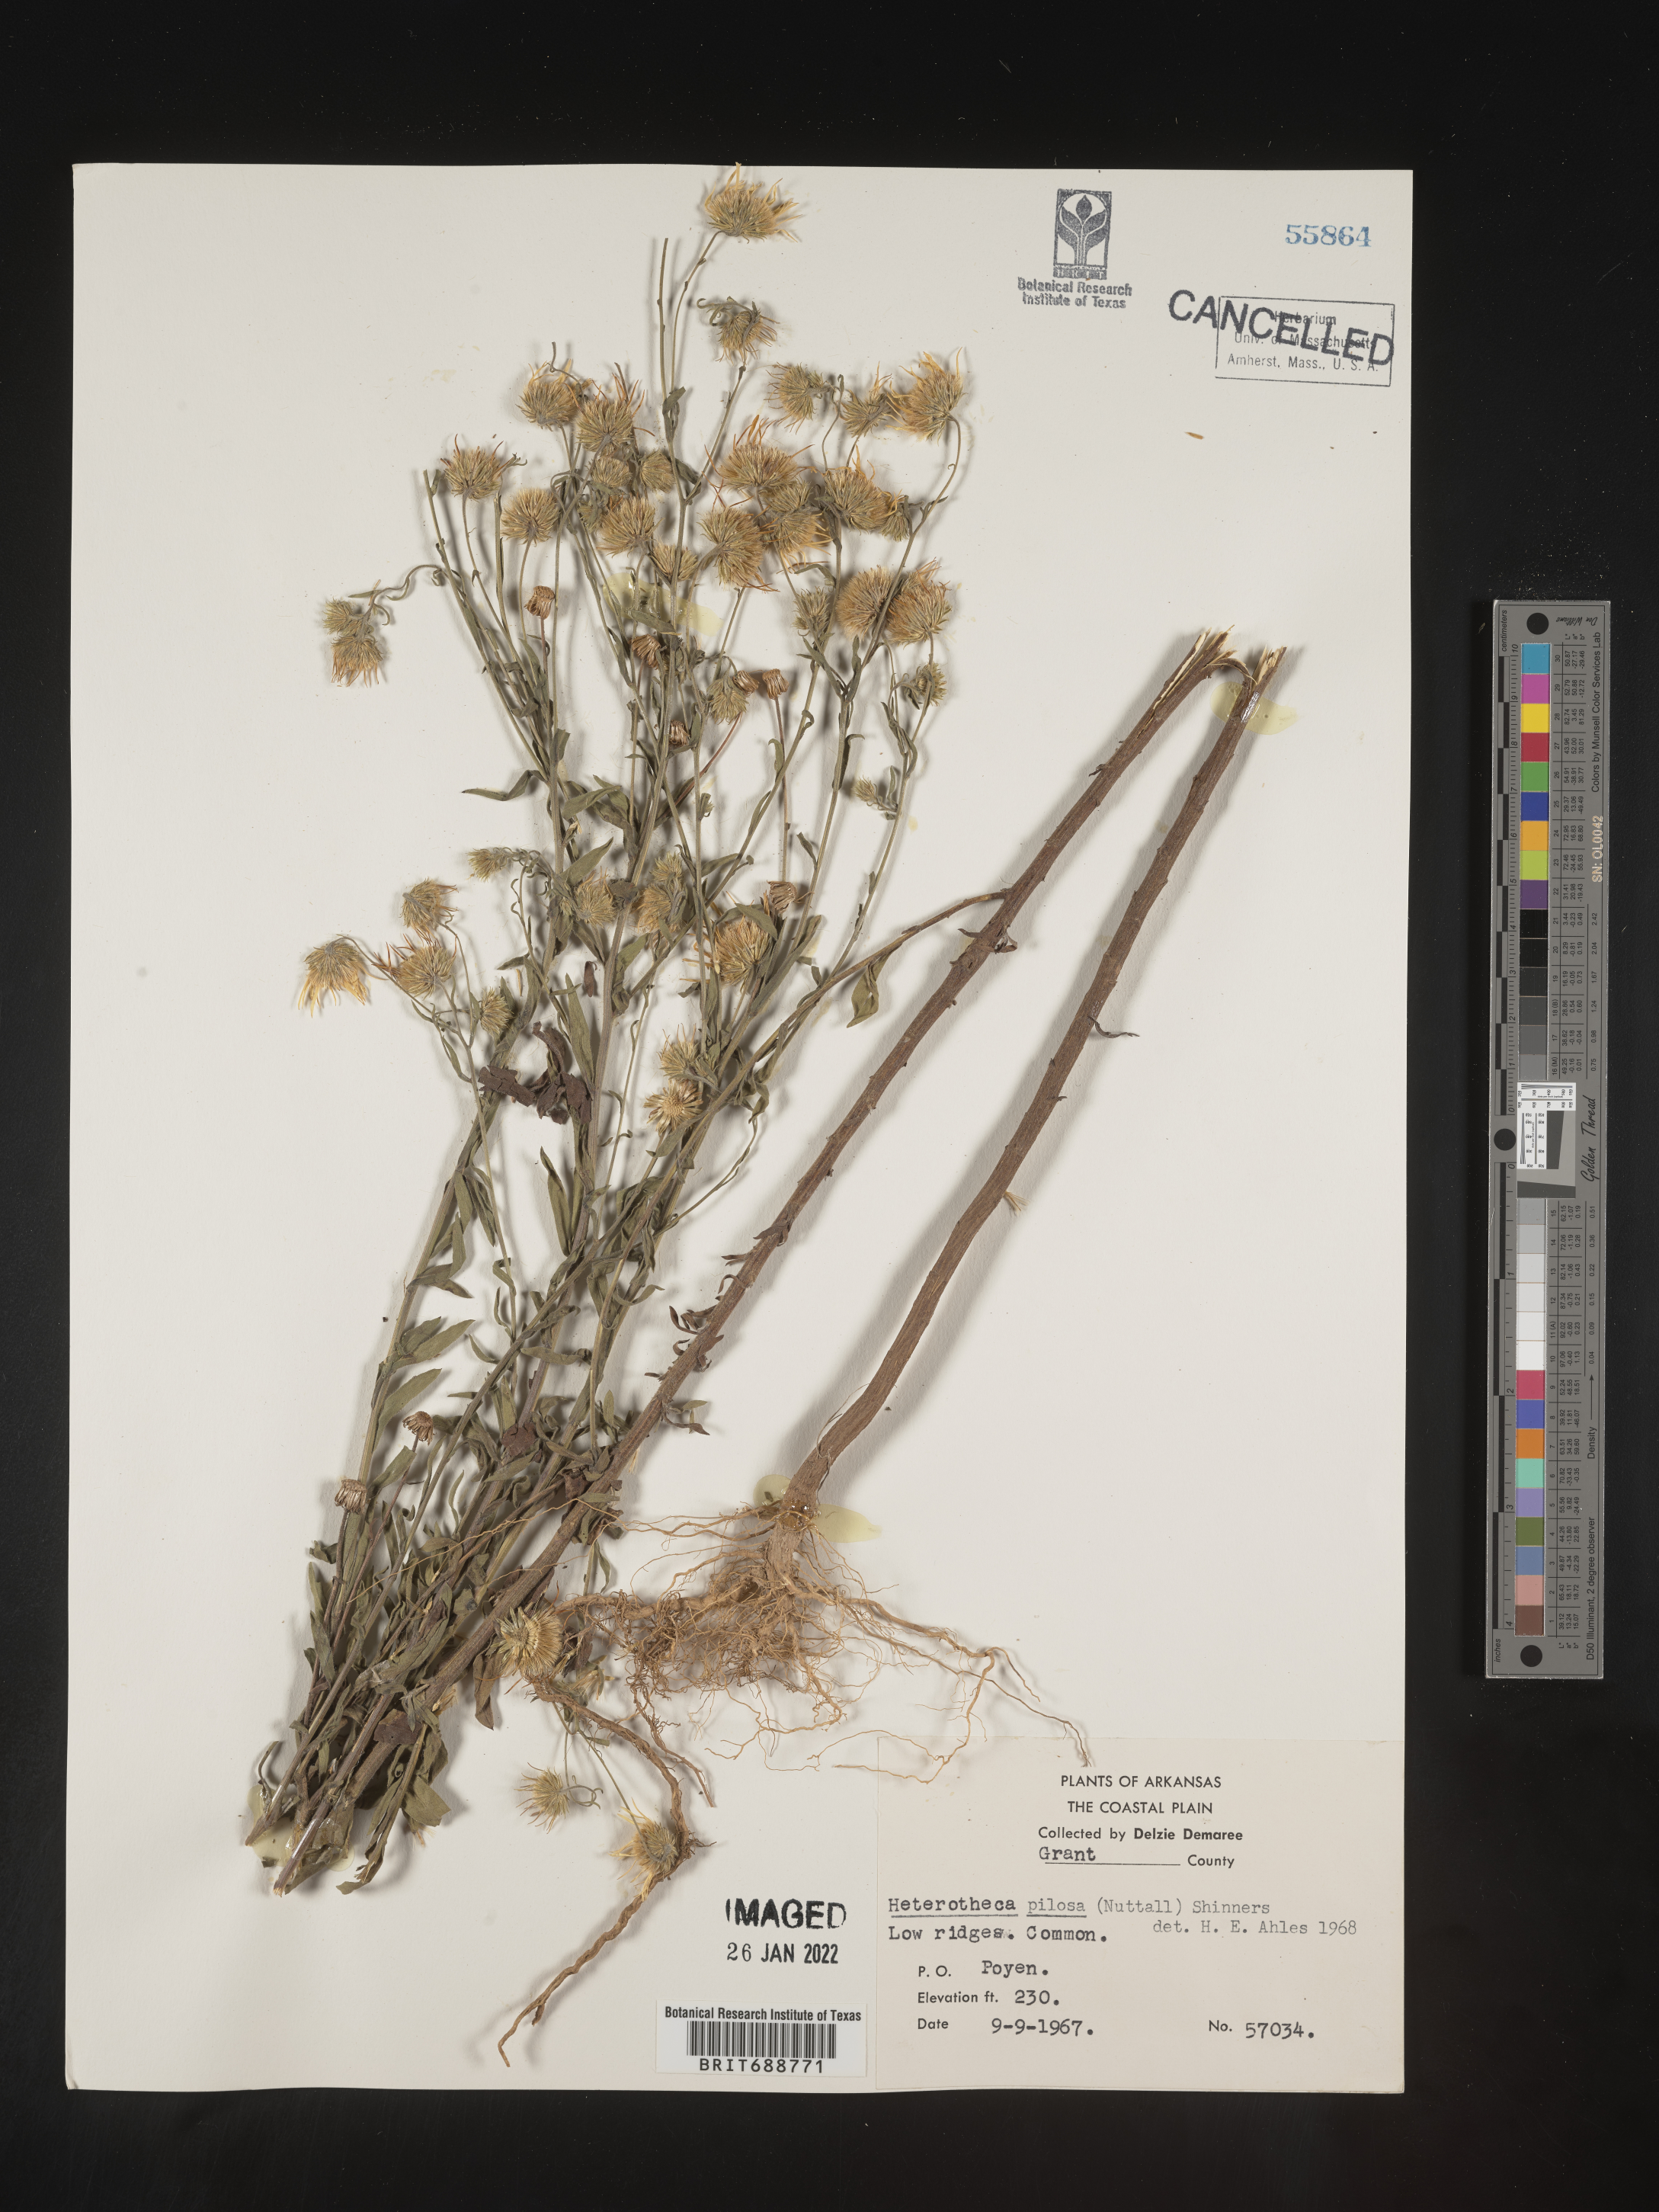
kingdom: Plantae
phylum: Tracheophyta
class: Magnoliopsida
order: Asterales
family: Asteraceae
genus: Bradburia
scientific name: Bradburia pilosa
